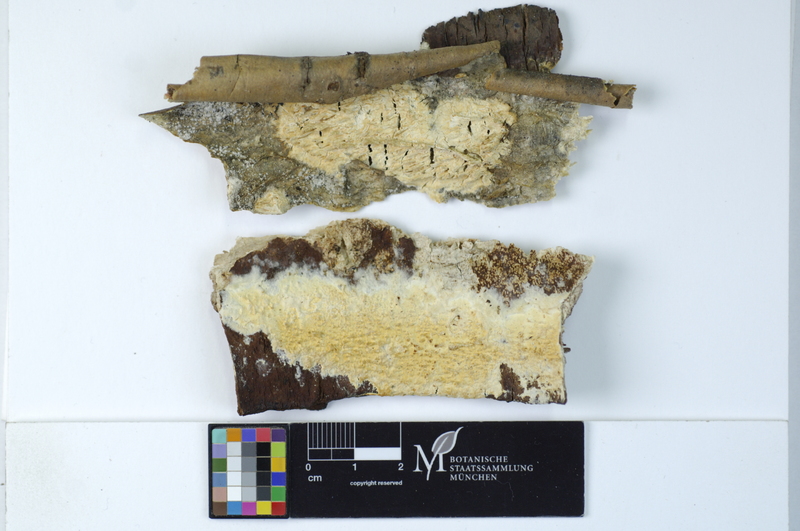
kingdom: Fungi
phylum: Basidiomycota
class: Agaricomycetes
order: Hymenochaetales
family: Schizoporaceae
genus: Xylodon
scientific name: Xylodon radula
